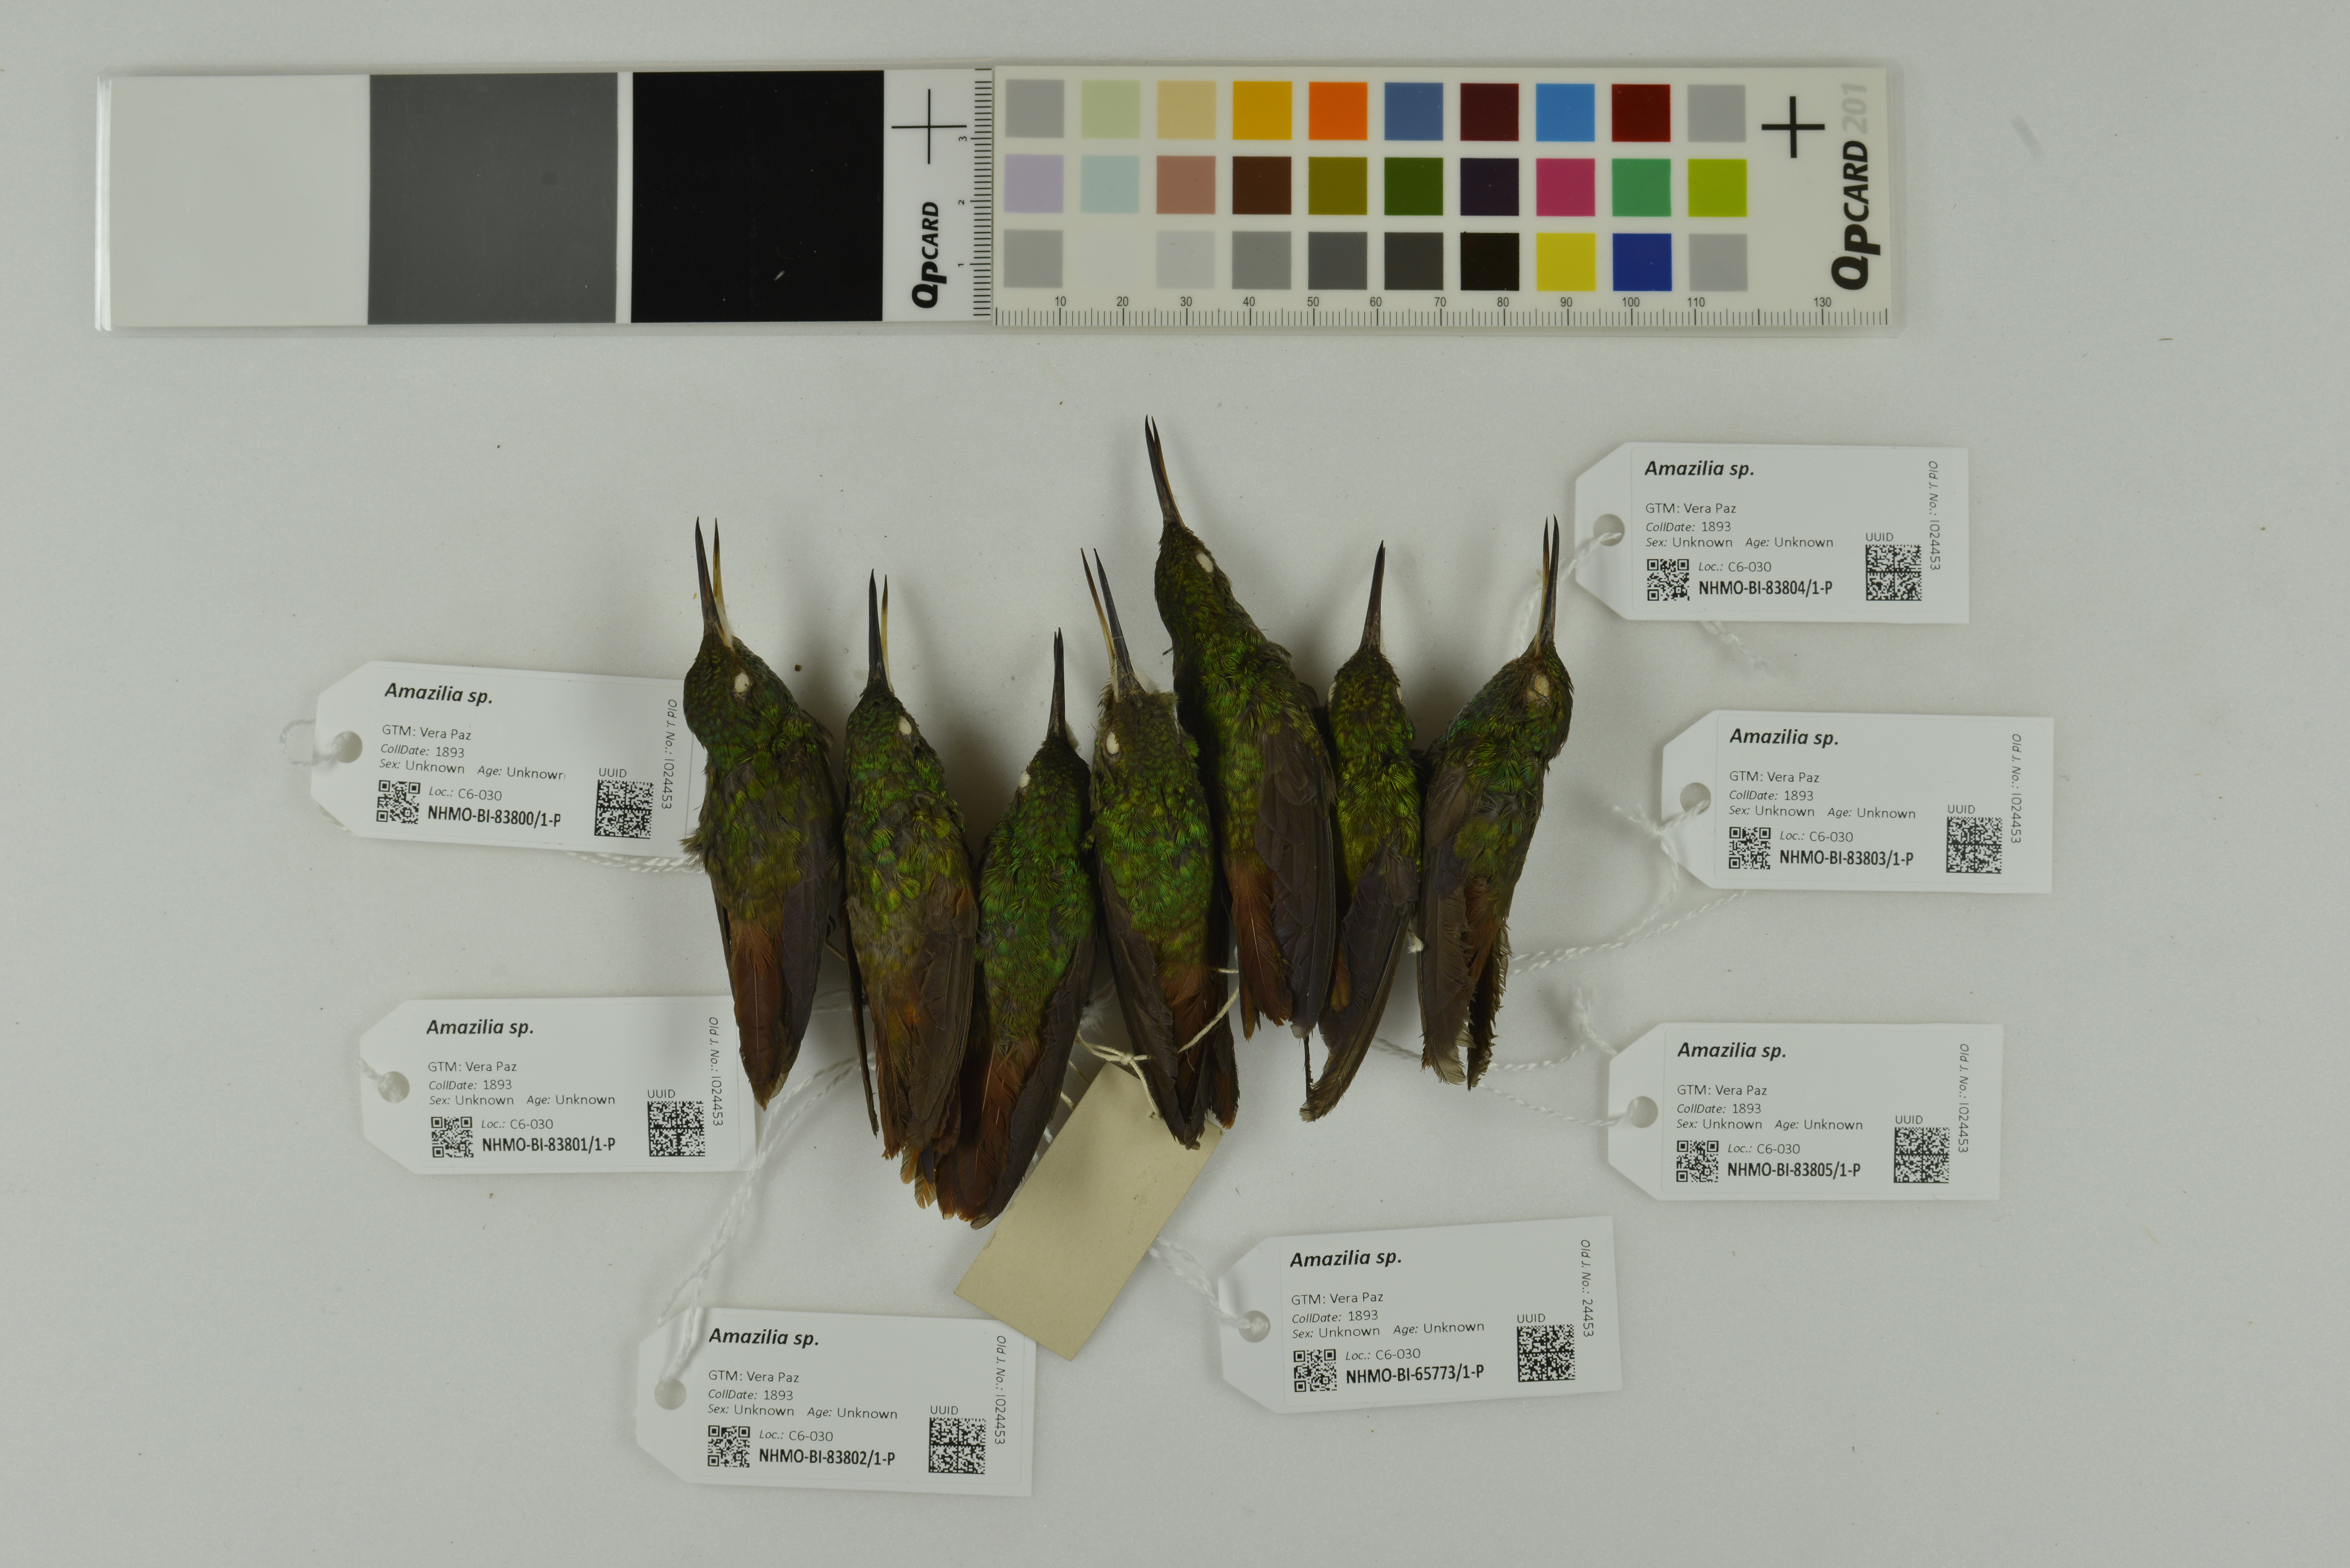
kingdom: Animalia
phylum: Chordata
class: Aves
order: Apodiformes
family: Trochilidae
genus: Amazilia
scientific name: Amazilia
